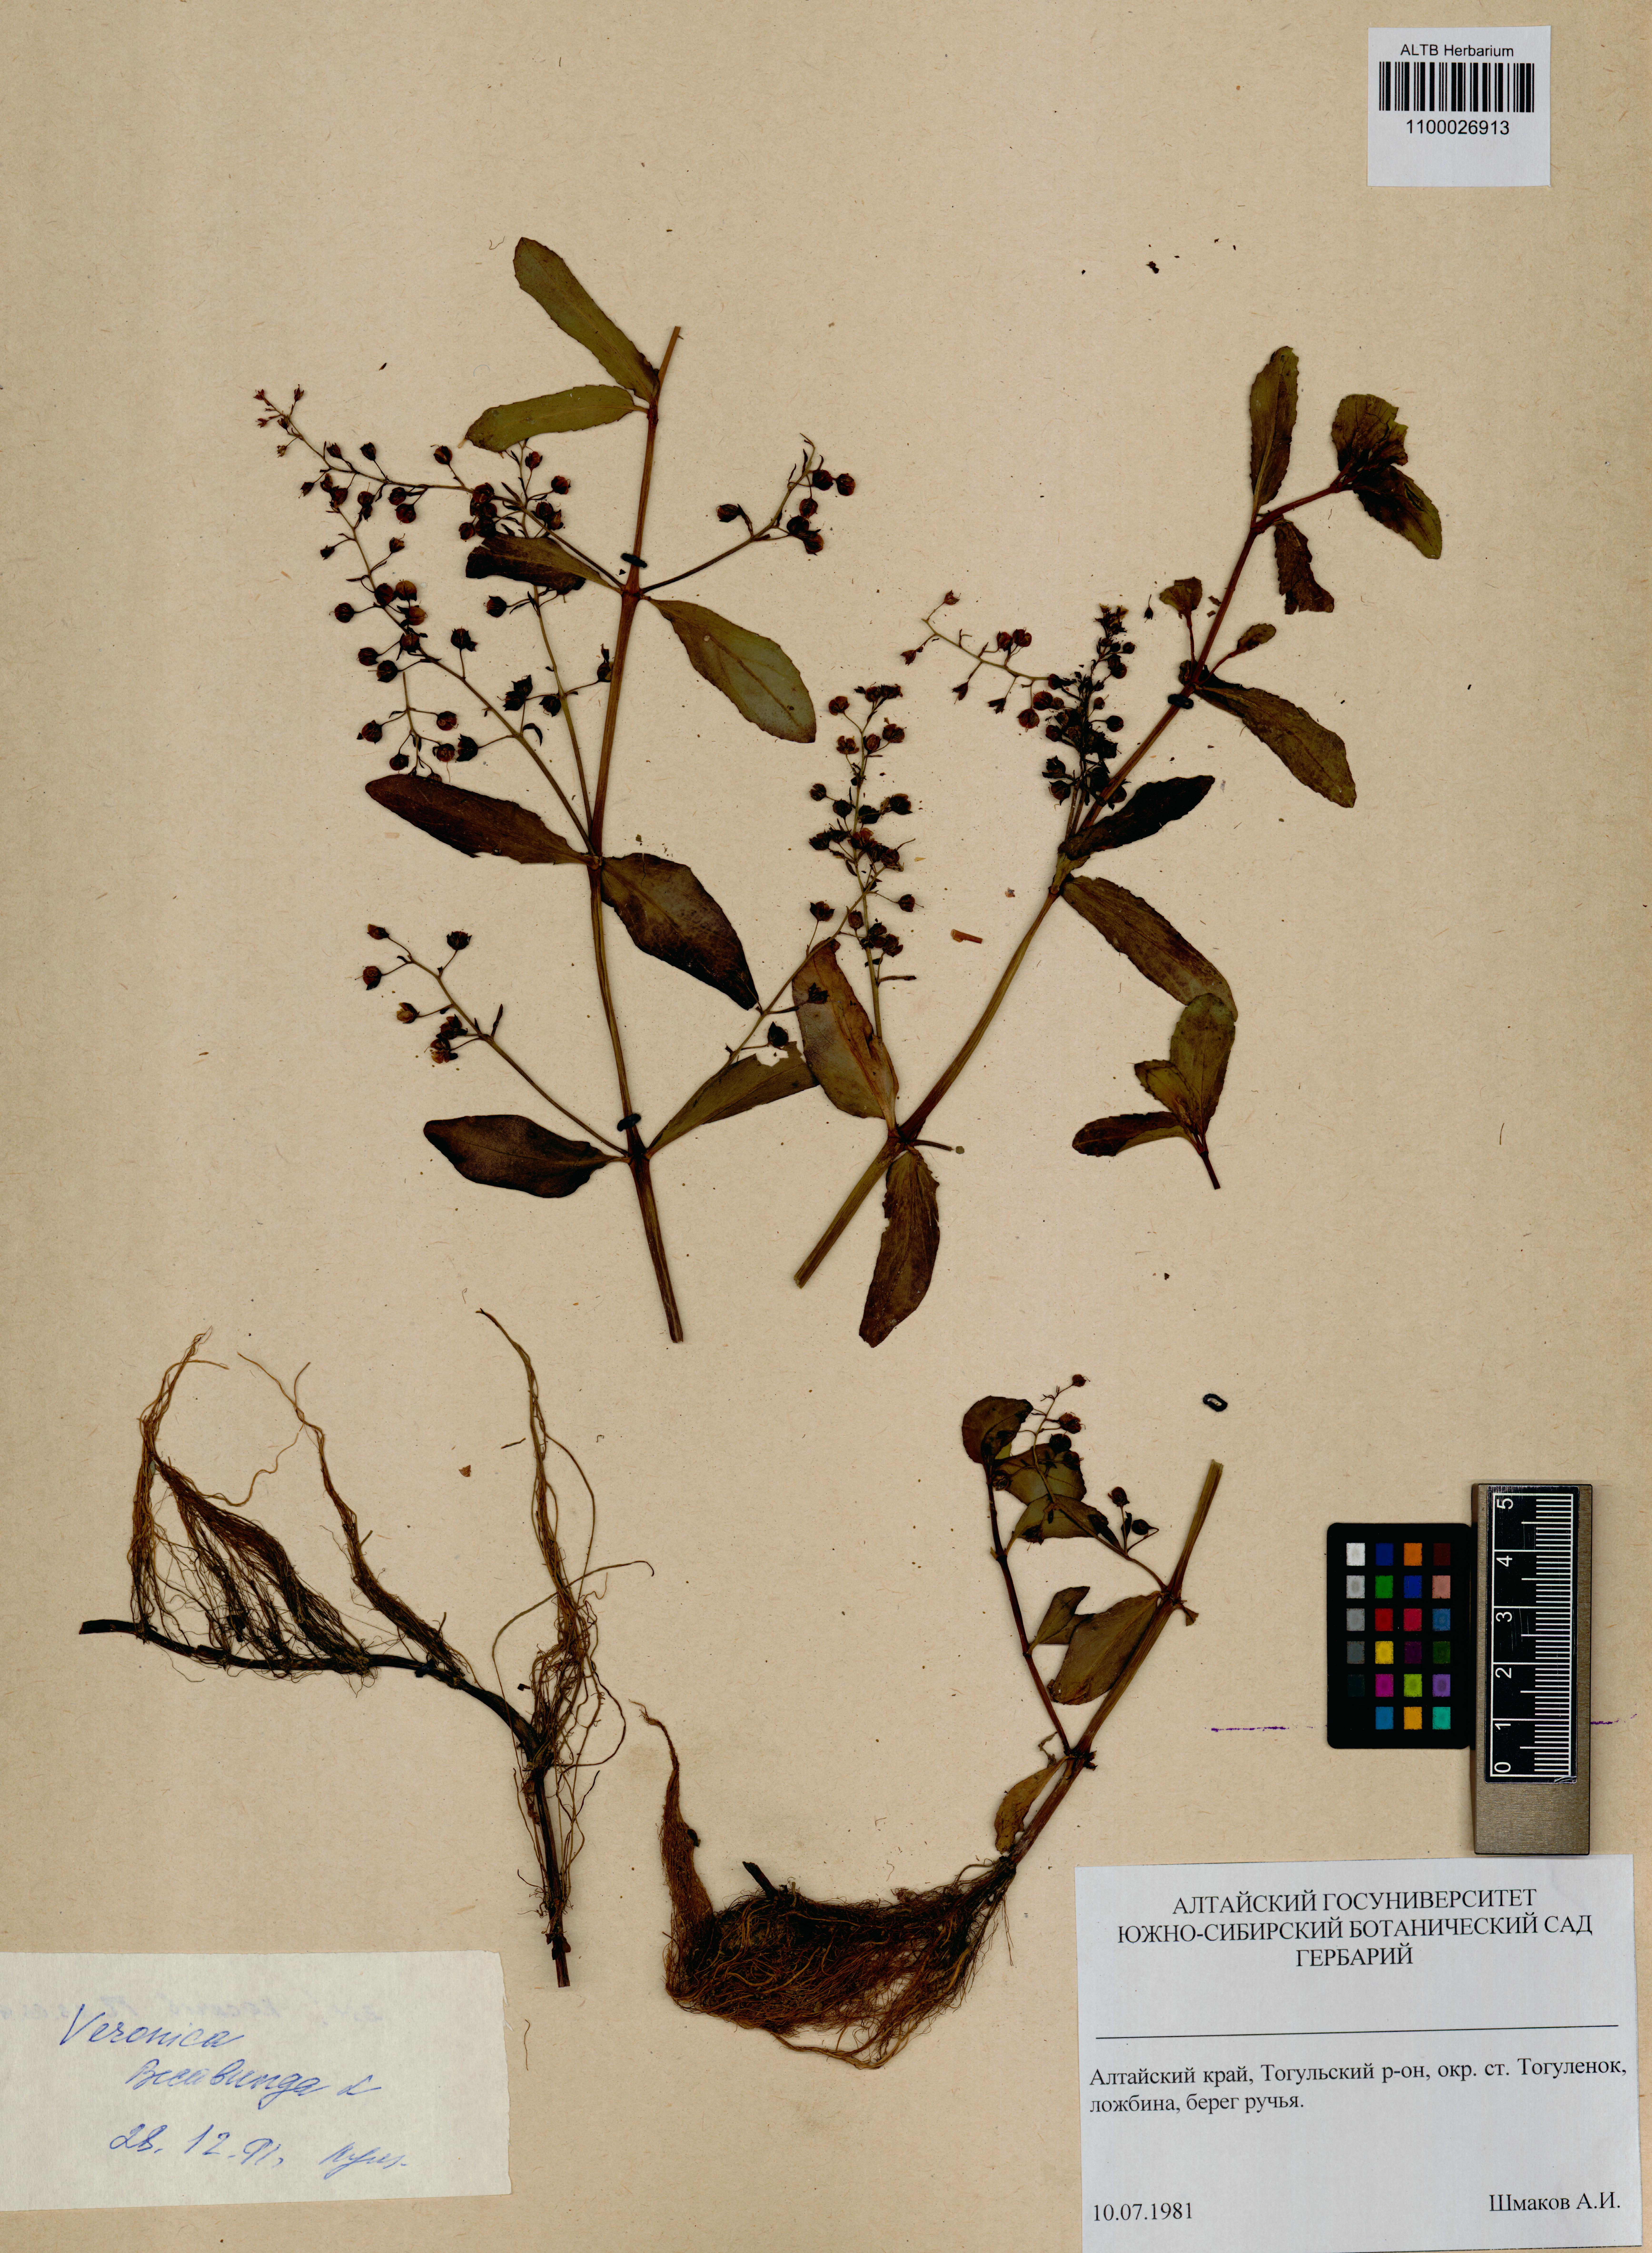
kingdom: Plantae
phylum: Tracheophyta
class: Magnoliopsida
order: Lamiales
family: Plantaginaceae
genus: Veronica
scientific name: Veronica beccabunga
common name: Brooklime
